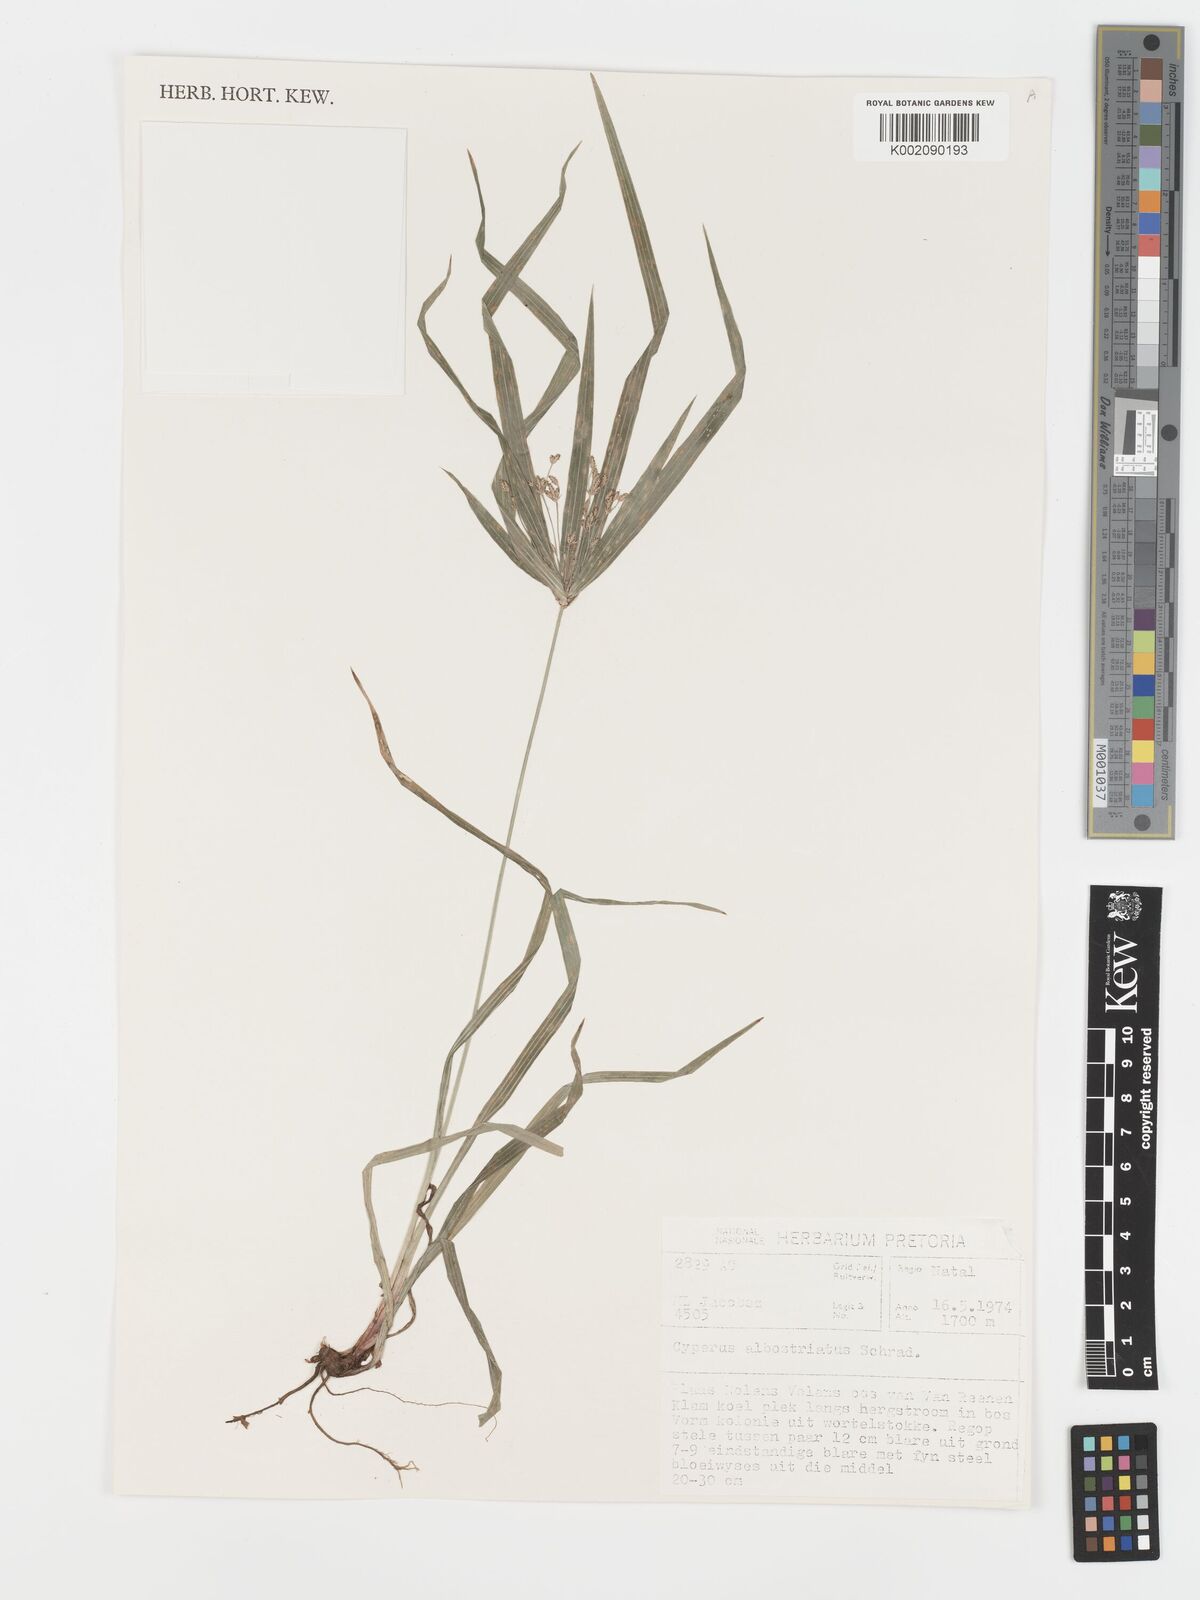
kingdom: Plantae
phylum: Tracheophyta
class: Liliopsida
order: Poales
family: Cyperaceae
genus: Cyperus
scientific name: Cyperus albostriatus
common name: Dwarf umbrella-grass
